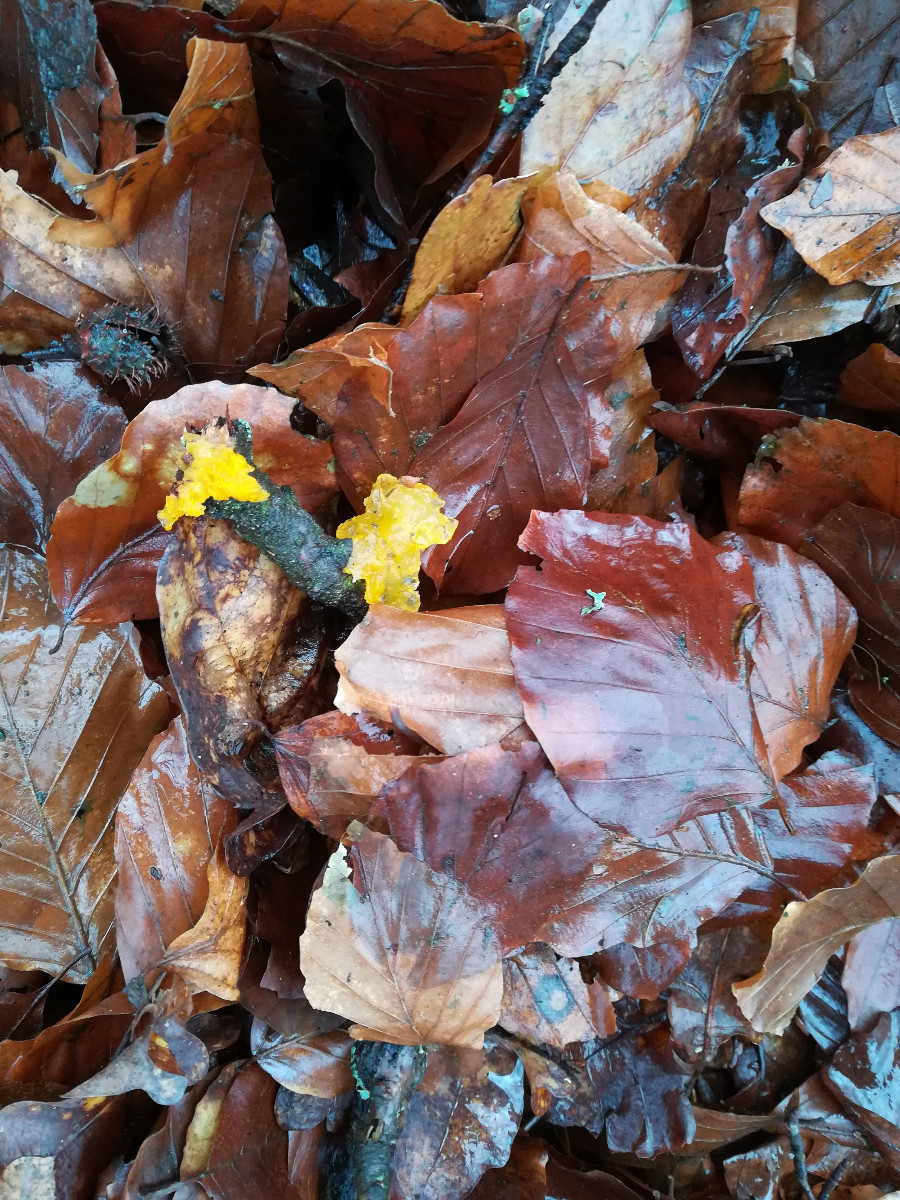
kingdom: Fungi
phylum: Basidiomycota
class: Tremellomycetes
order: Tremellales
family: Tremellaceae
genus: Tremella
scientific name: Tremella mesenterica
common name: gul bævresvamp
